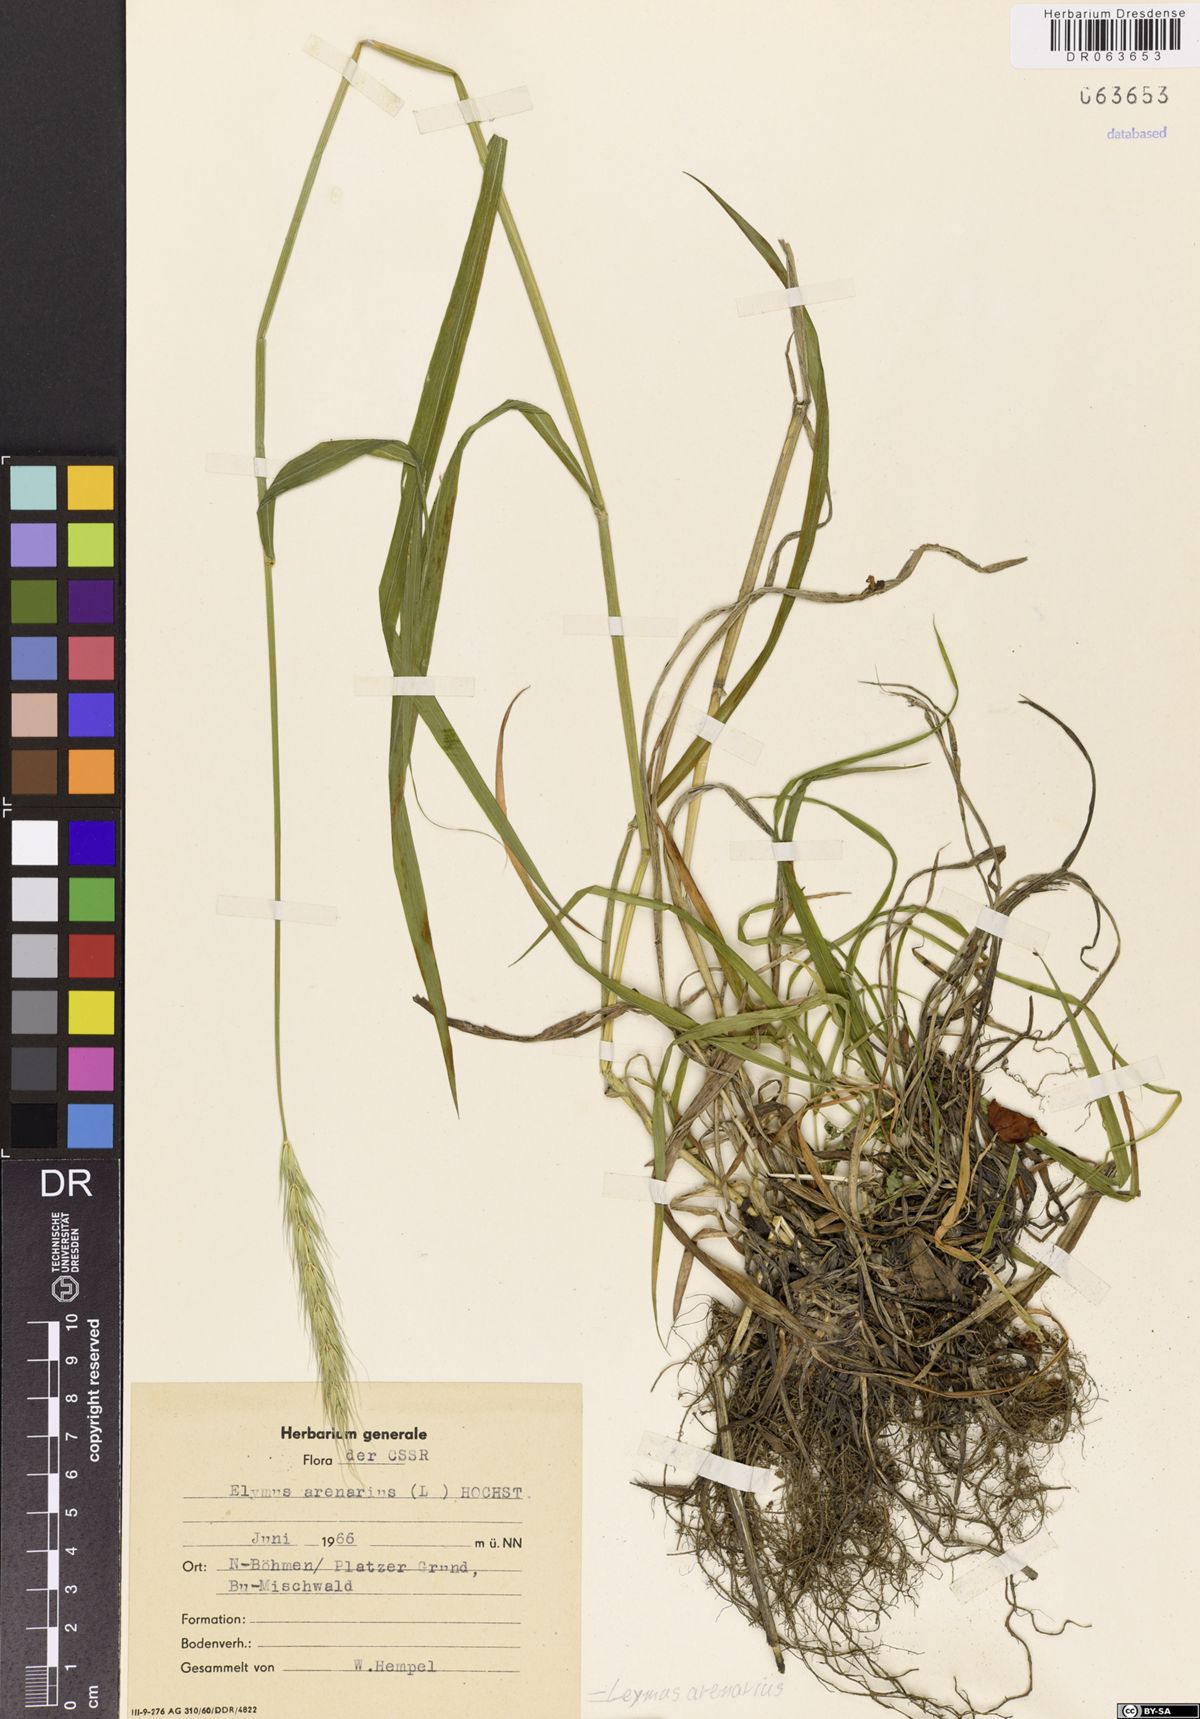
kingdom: Plantae
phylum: Tracheophyta
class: Liliopsida
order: Poales
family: Poaceae
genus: Leymus
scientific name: Leymus arenarius
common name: Lyme-grass
